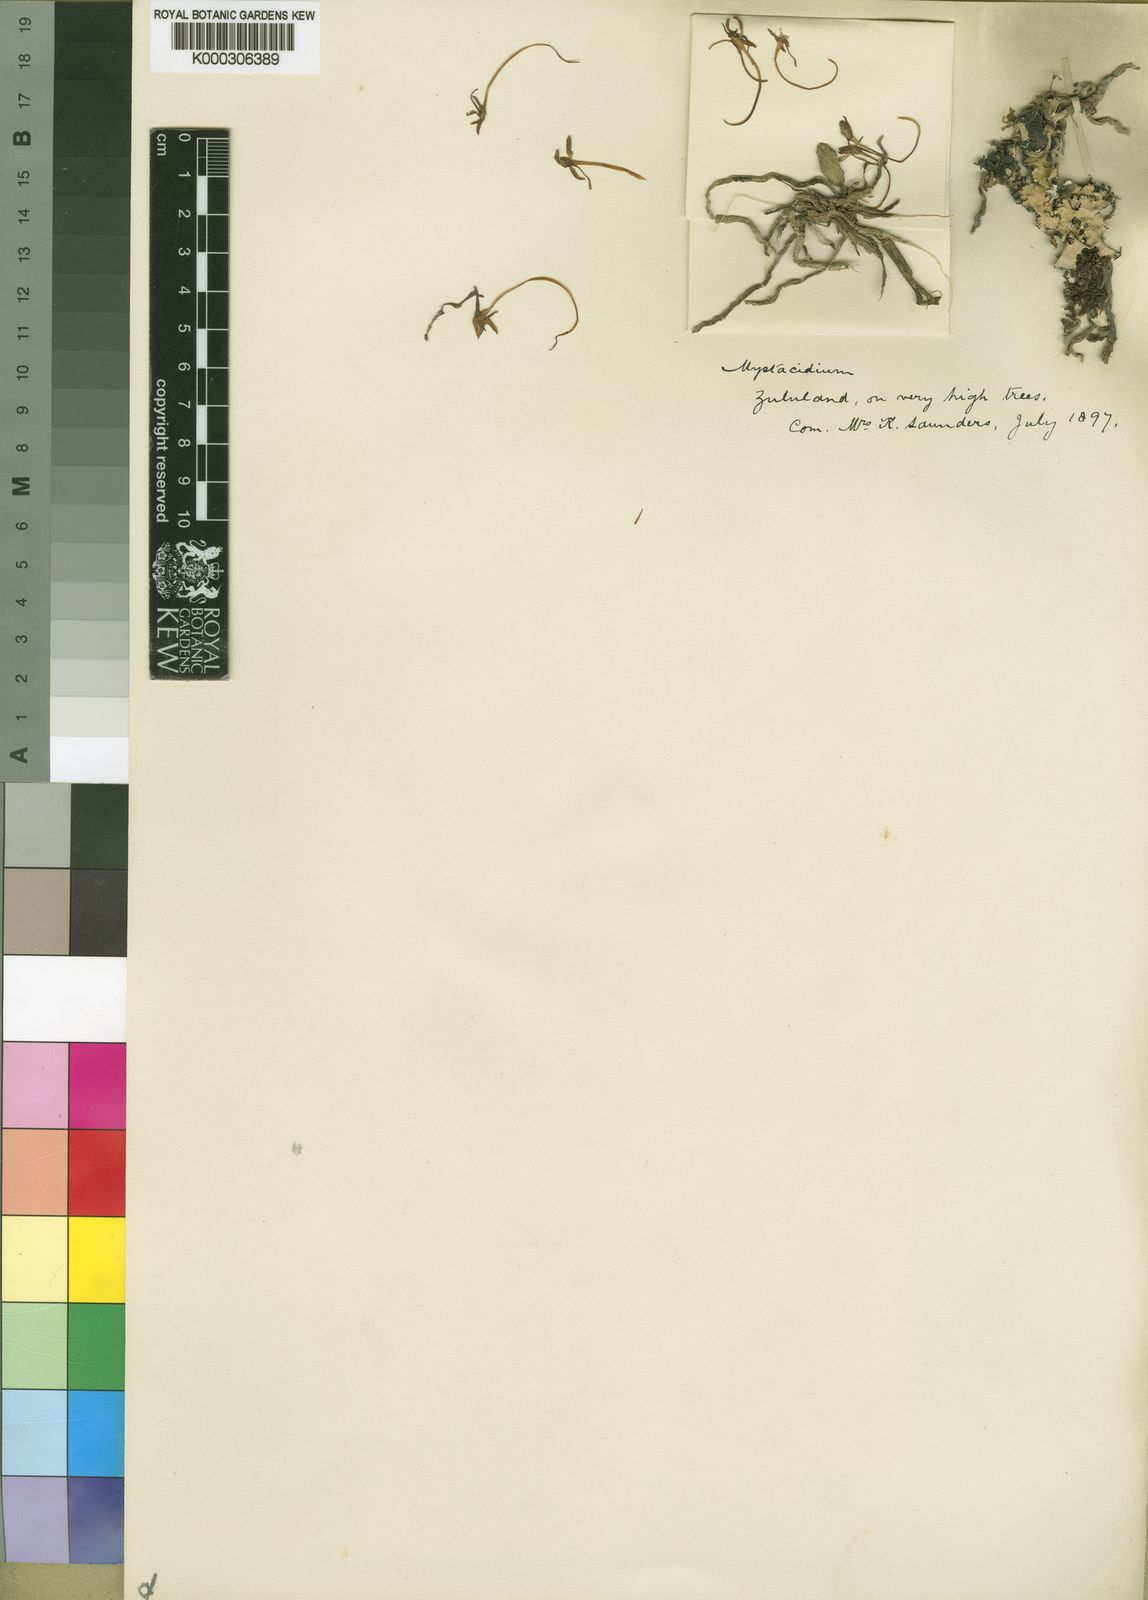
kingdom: Plantae
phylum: Tracheophyta
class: Liliopsida
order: Asparagales
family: Orchidaceae
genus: Mystacidium
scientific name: Mystacidium venosum
